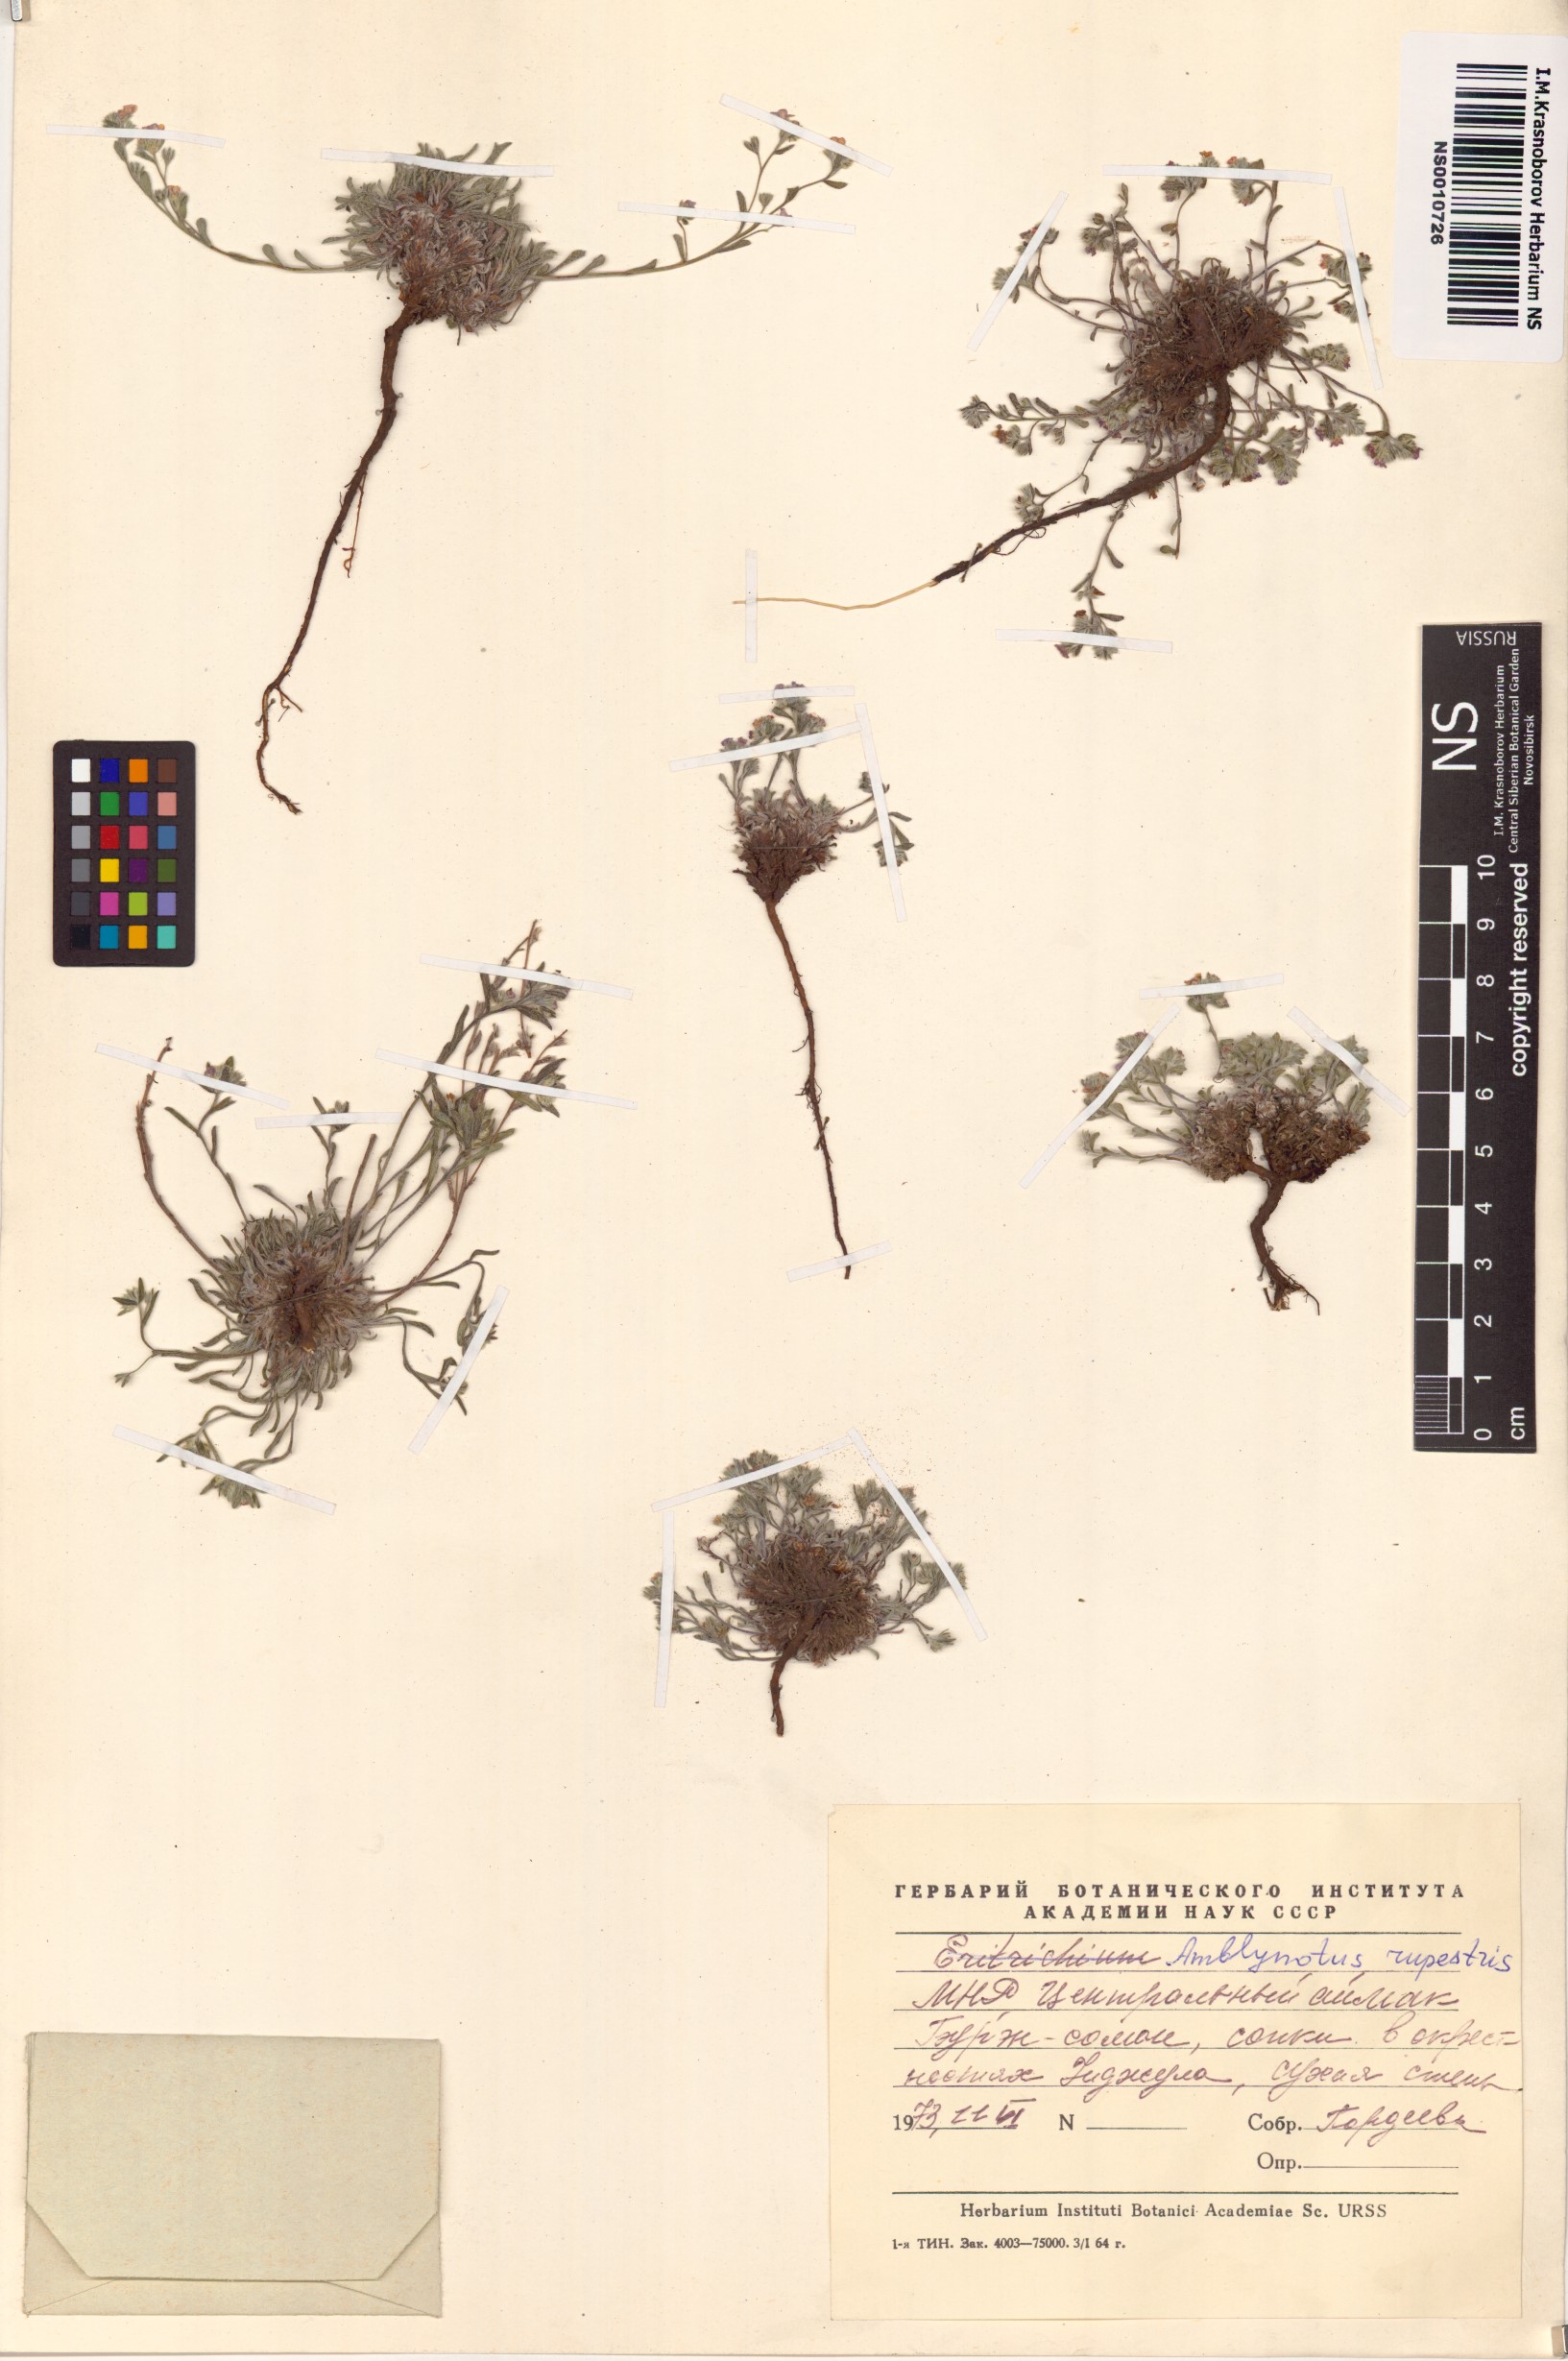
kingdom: Plantae
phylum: Tracheophyta
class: Magnoliopsida
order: Boraginales
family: Boraginaceae
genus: Eritrichium
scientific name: Eritrichium rupestre
